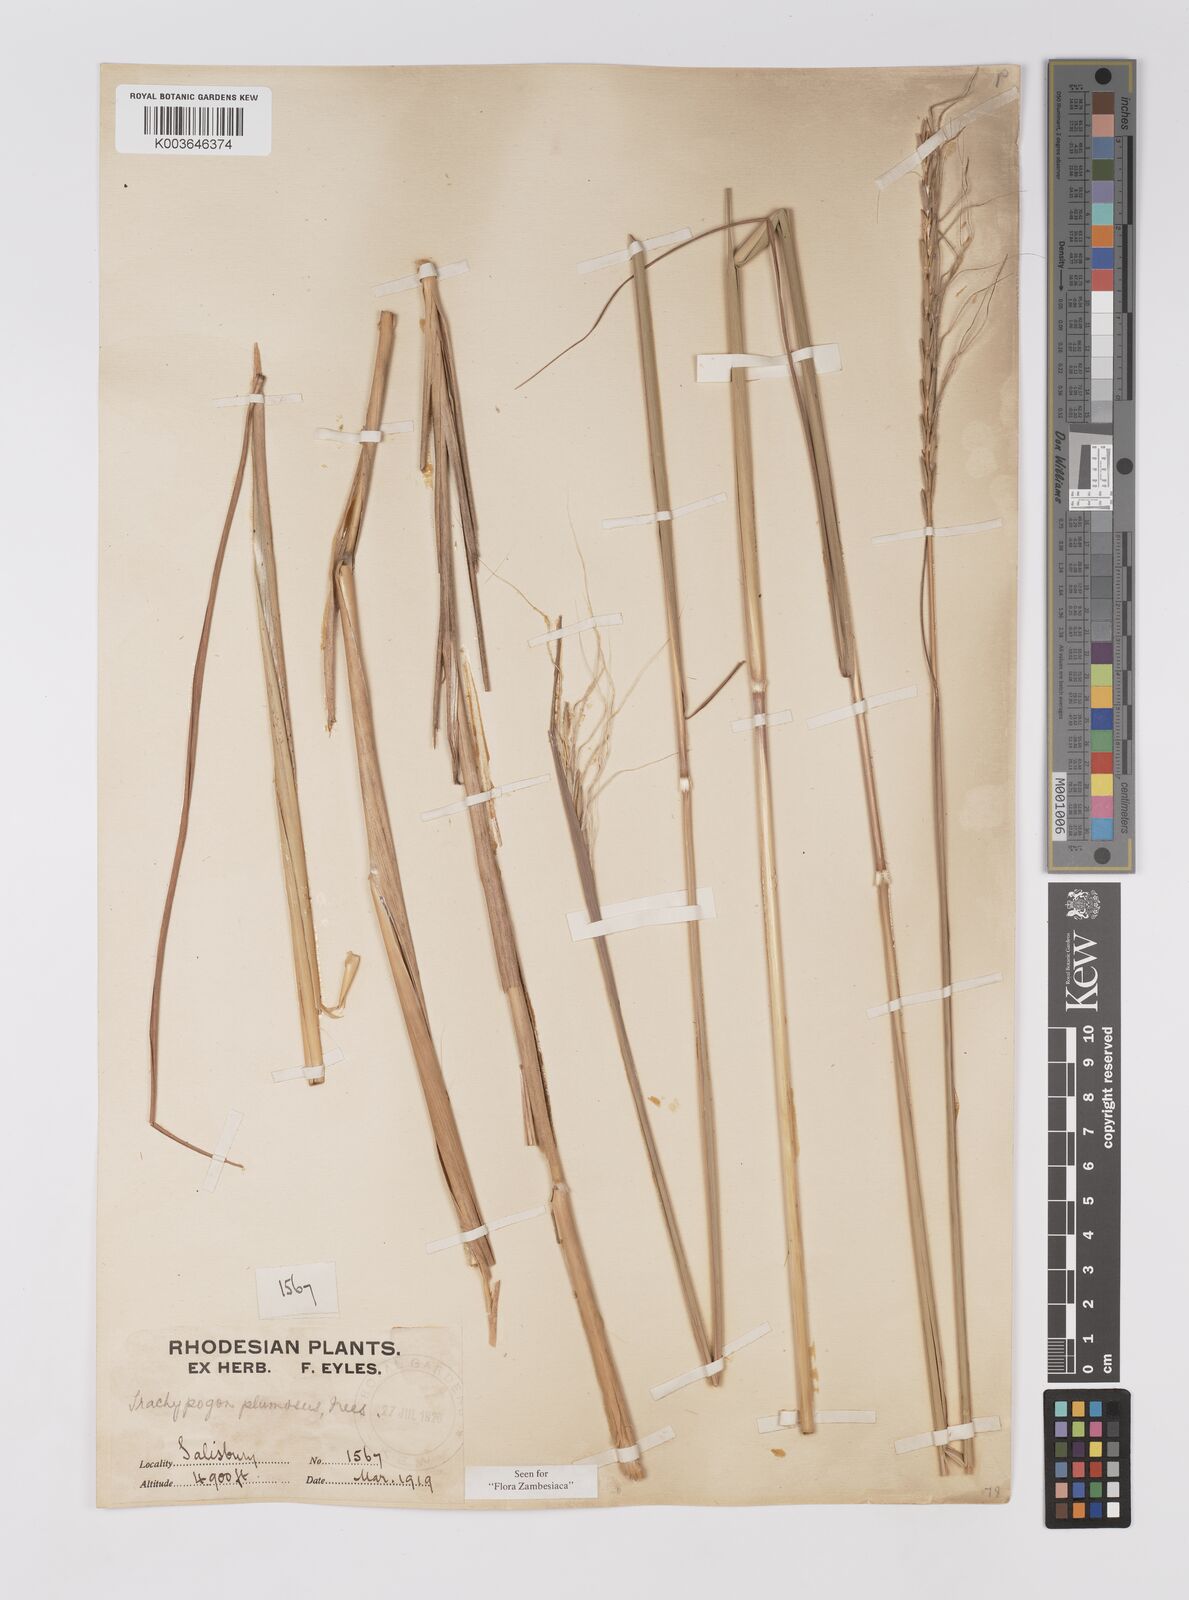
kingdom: Plantae
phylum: Tracheophyta
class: Liliopsida
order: Poales
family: Poaceae
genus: Trachypogon
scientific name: Trachypogon spicatus
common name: Crinkle-awn
